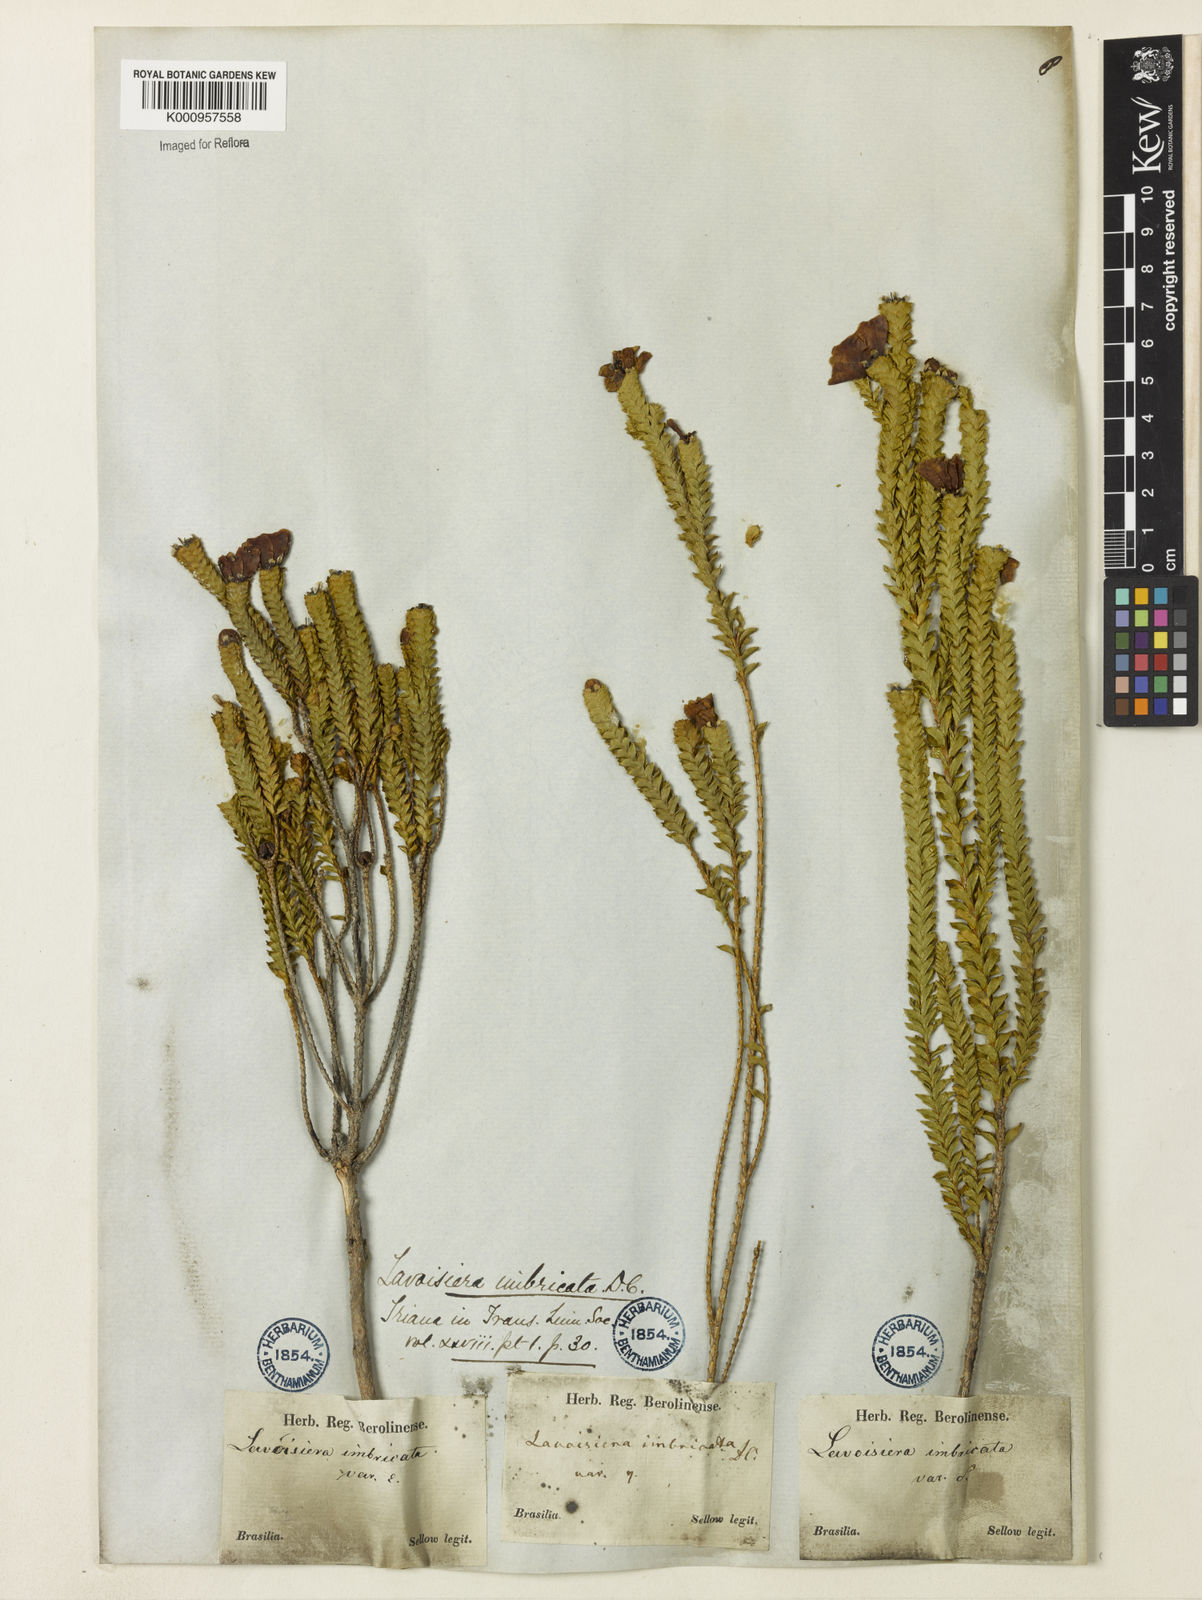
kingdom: Plantae
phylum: Tracheophyta
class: Magnoliopsida
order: Myrtales
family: Melastomataceae
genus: Microlicia
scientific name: Microlicia cataphracta
